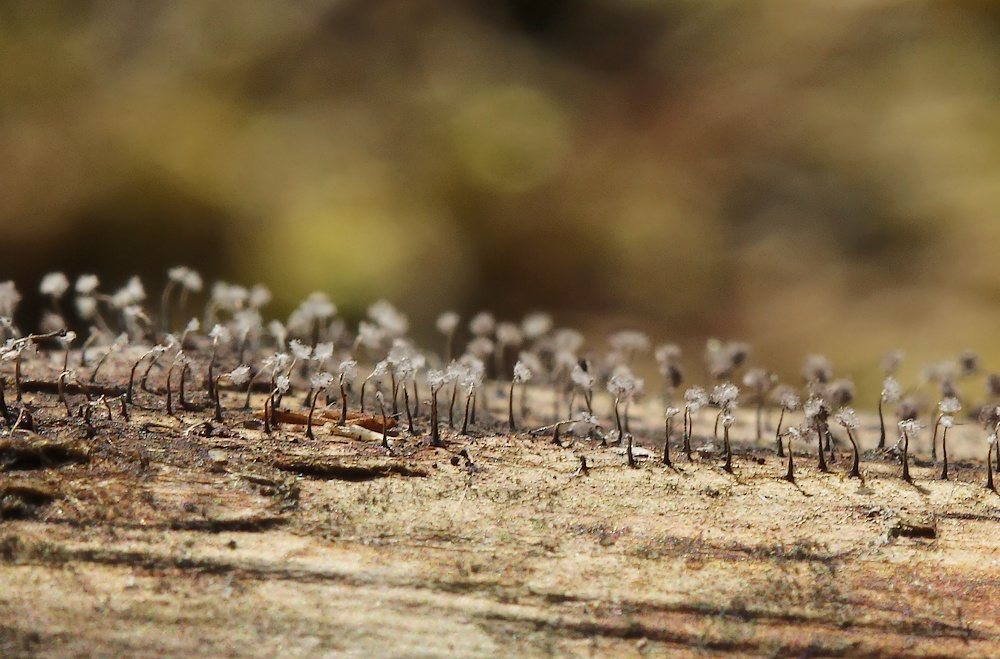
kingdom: Protozoa
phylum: Mycetozoa
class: Myxomycetes
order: Physarales
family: Physaraceae
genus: Physarum
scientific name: Physarum album
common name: nikkende støvknop
